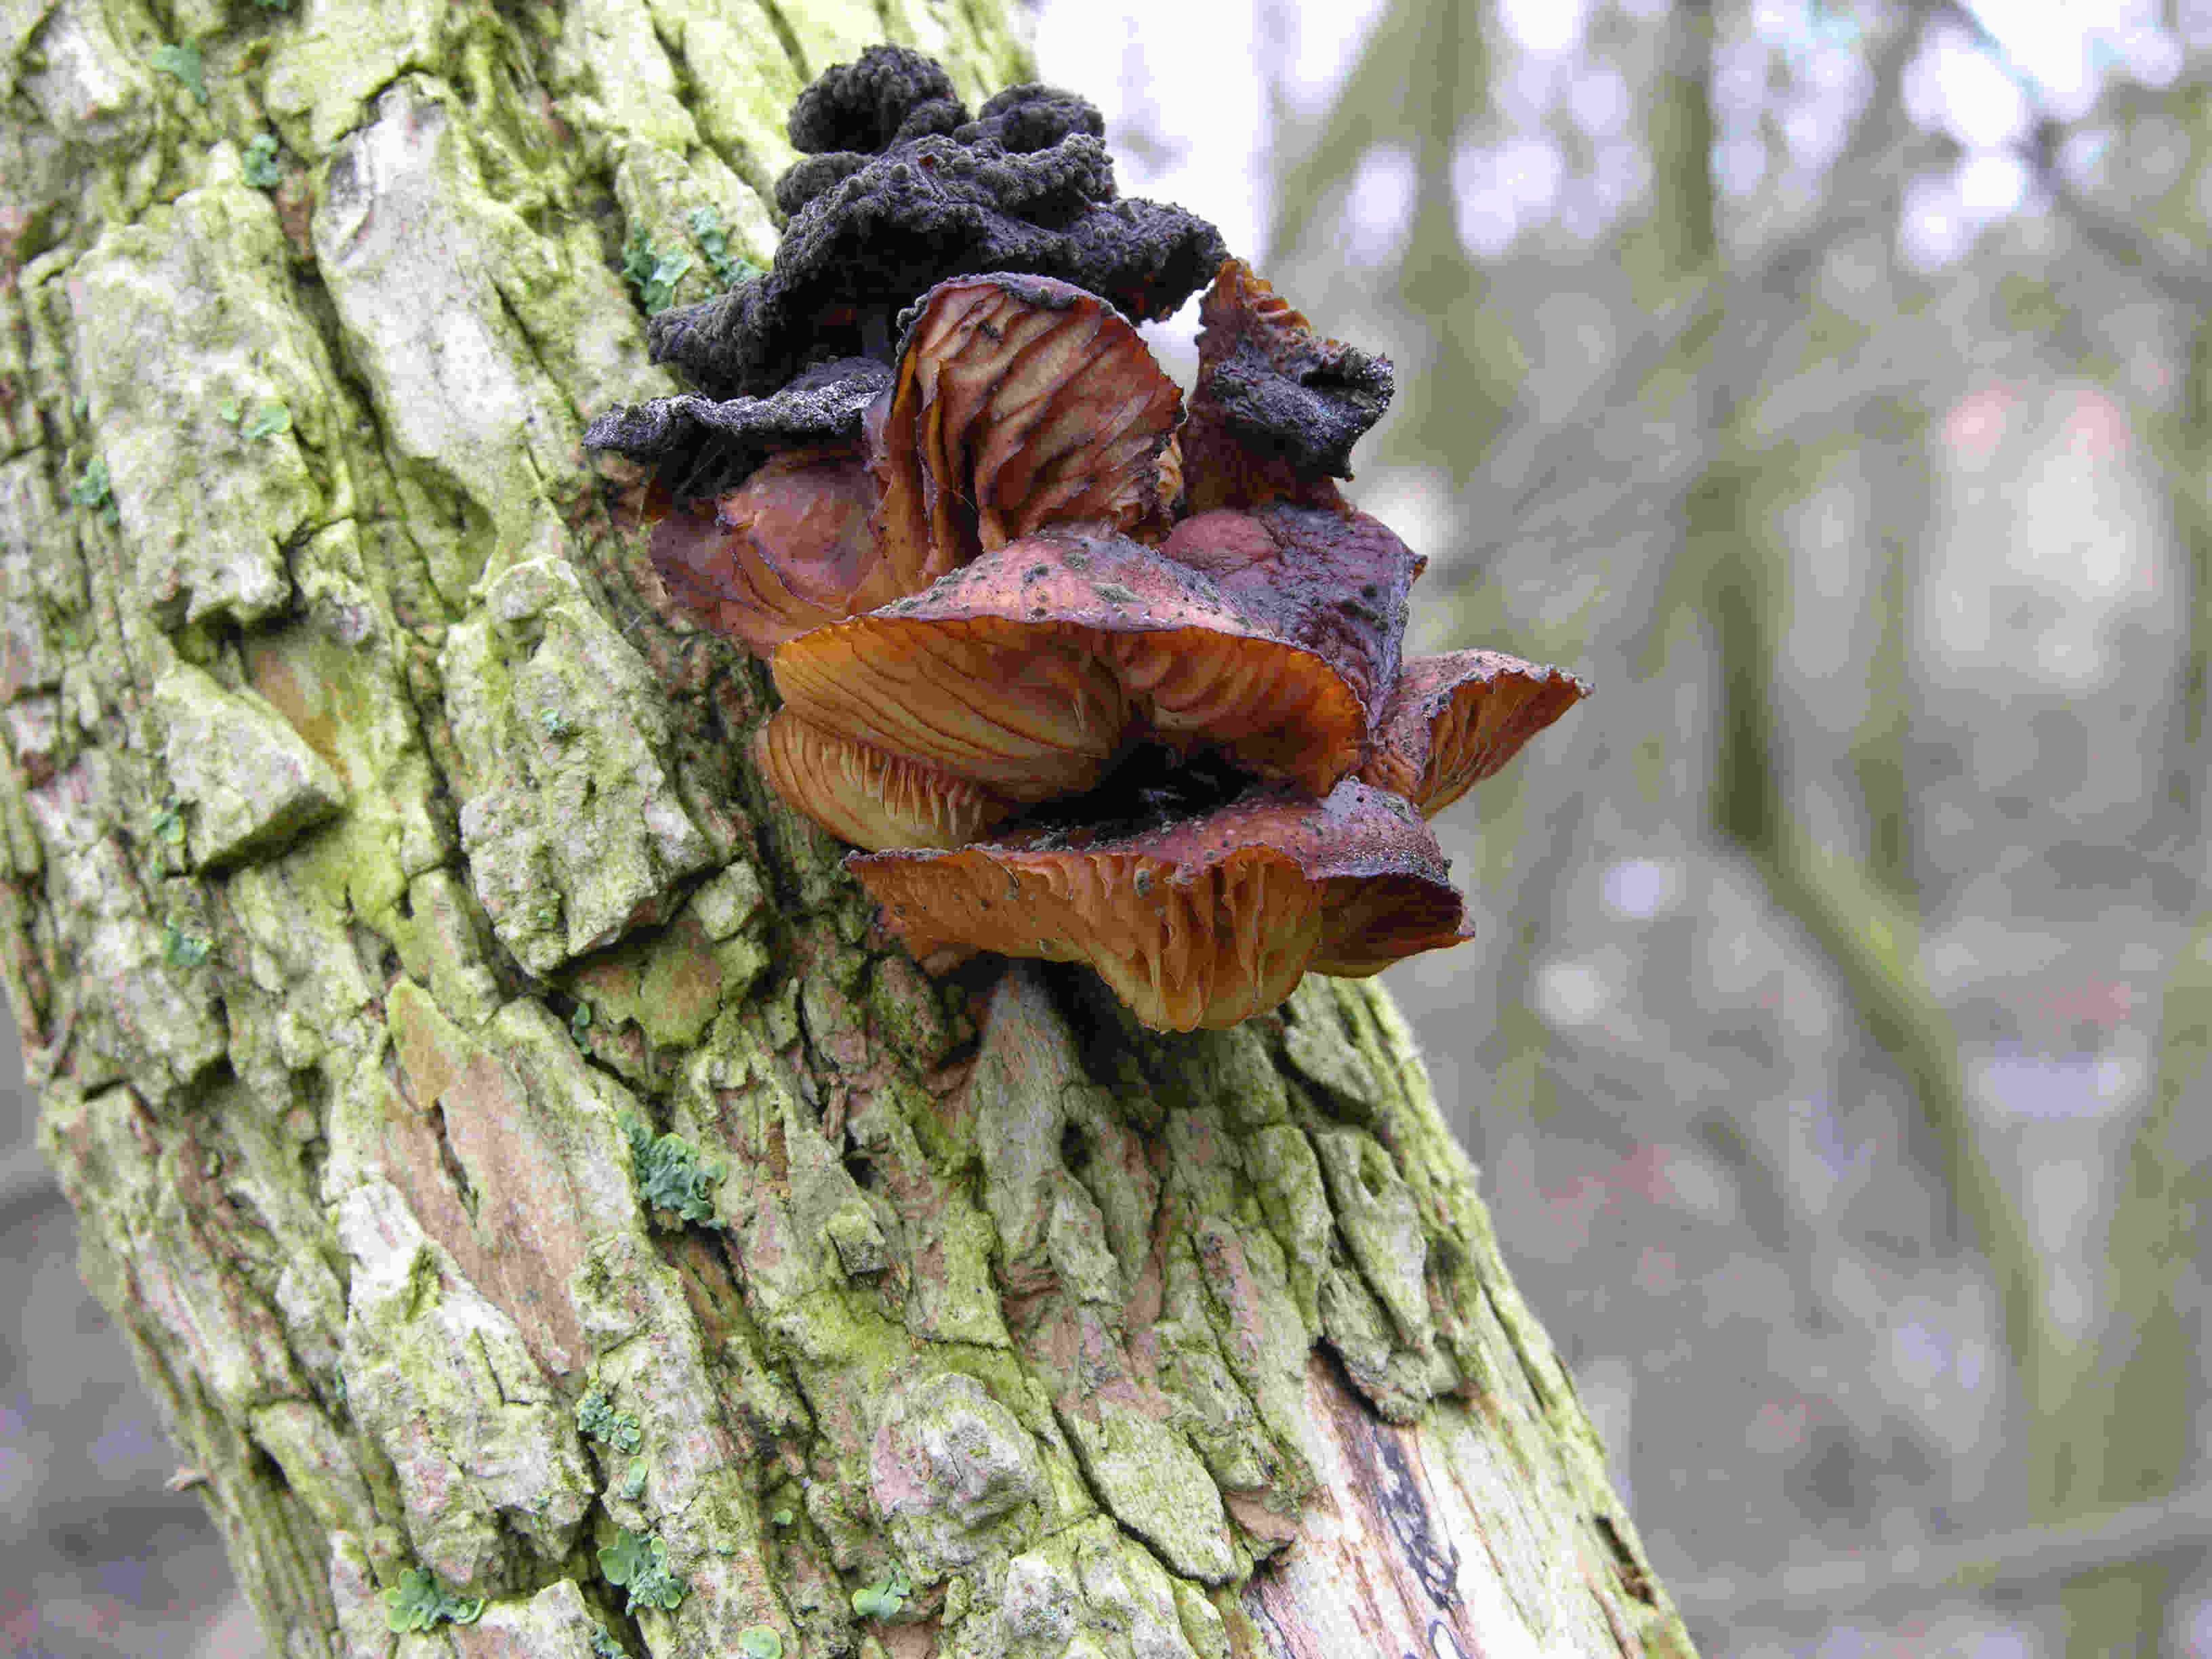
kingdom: Fungi
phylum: Basidiomycota
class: Agaricomycetes
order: Agaricales
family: Physalacriaceae
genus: Flammulina
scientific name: Flammulina velutipes
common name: gul fløjlsfod
